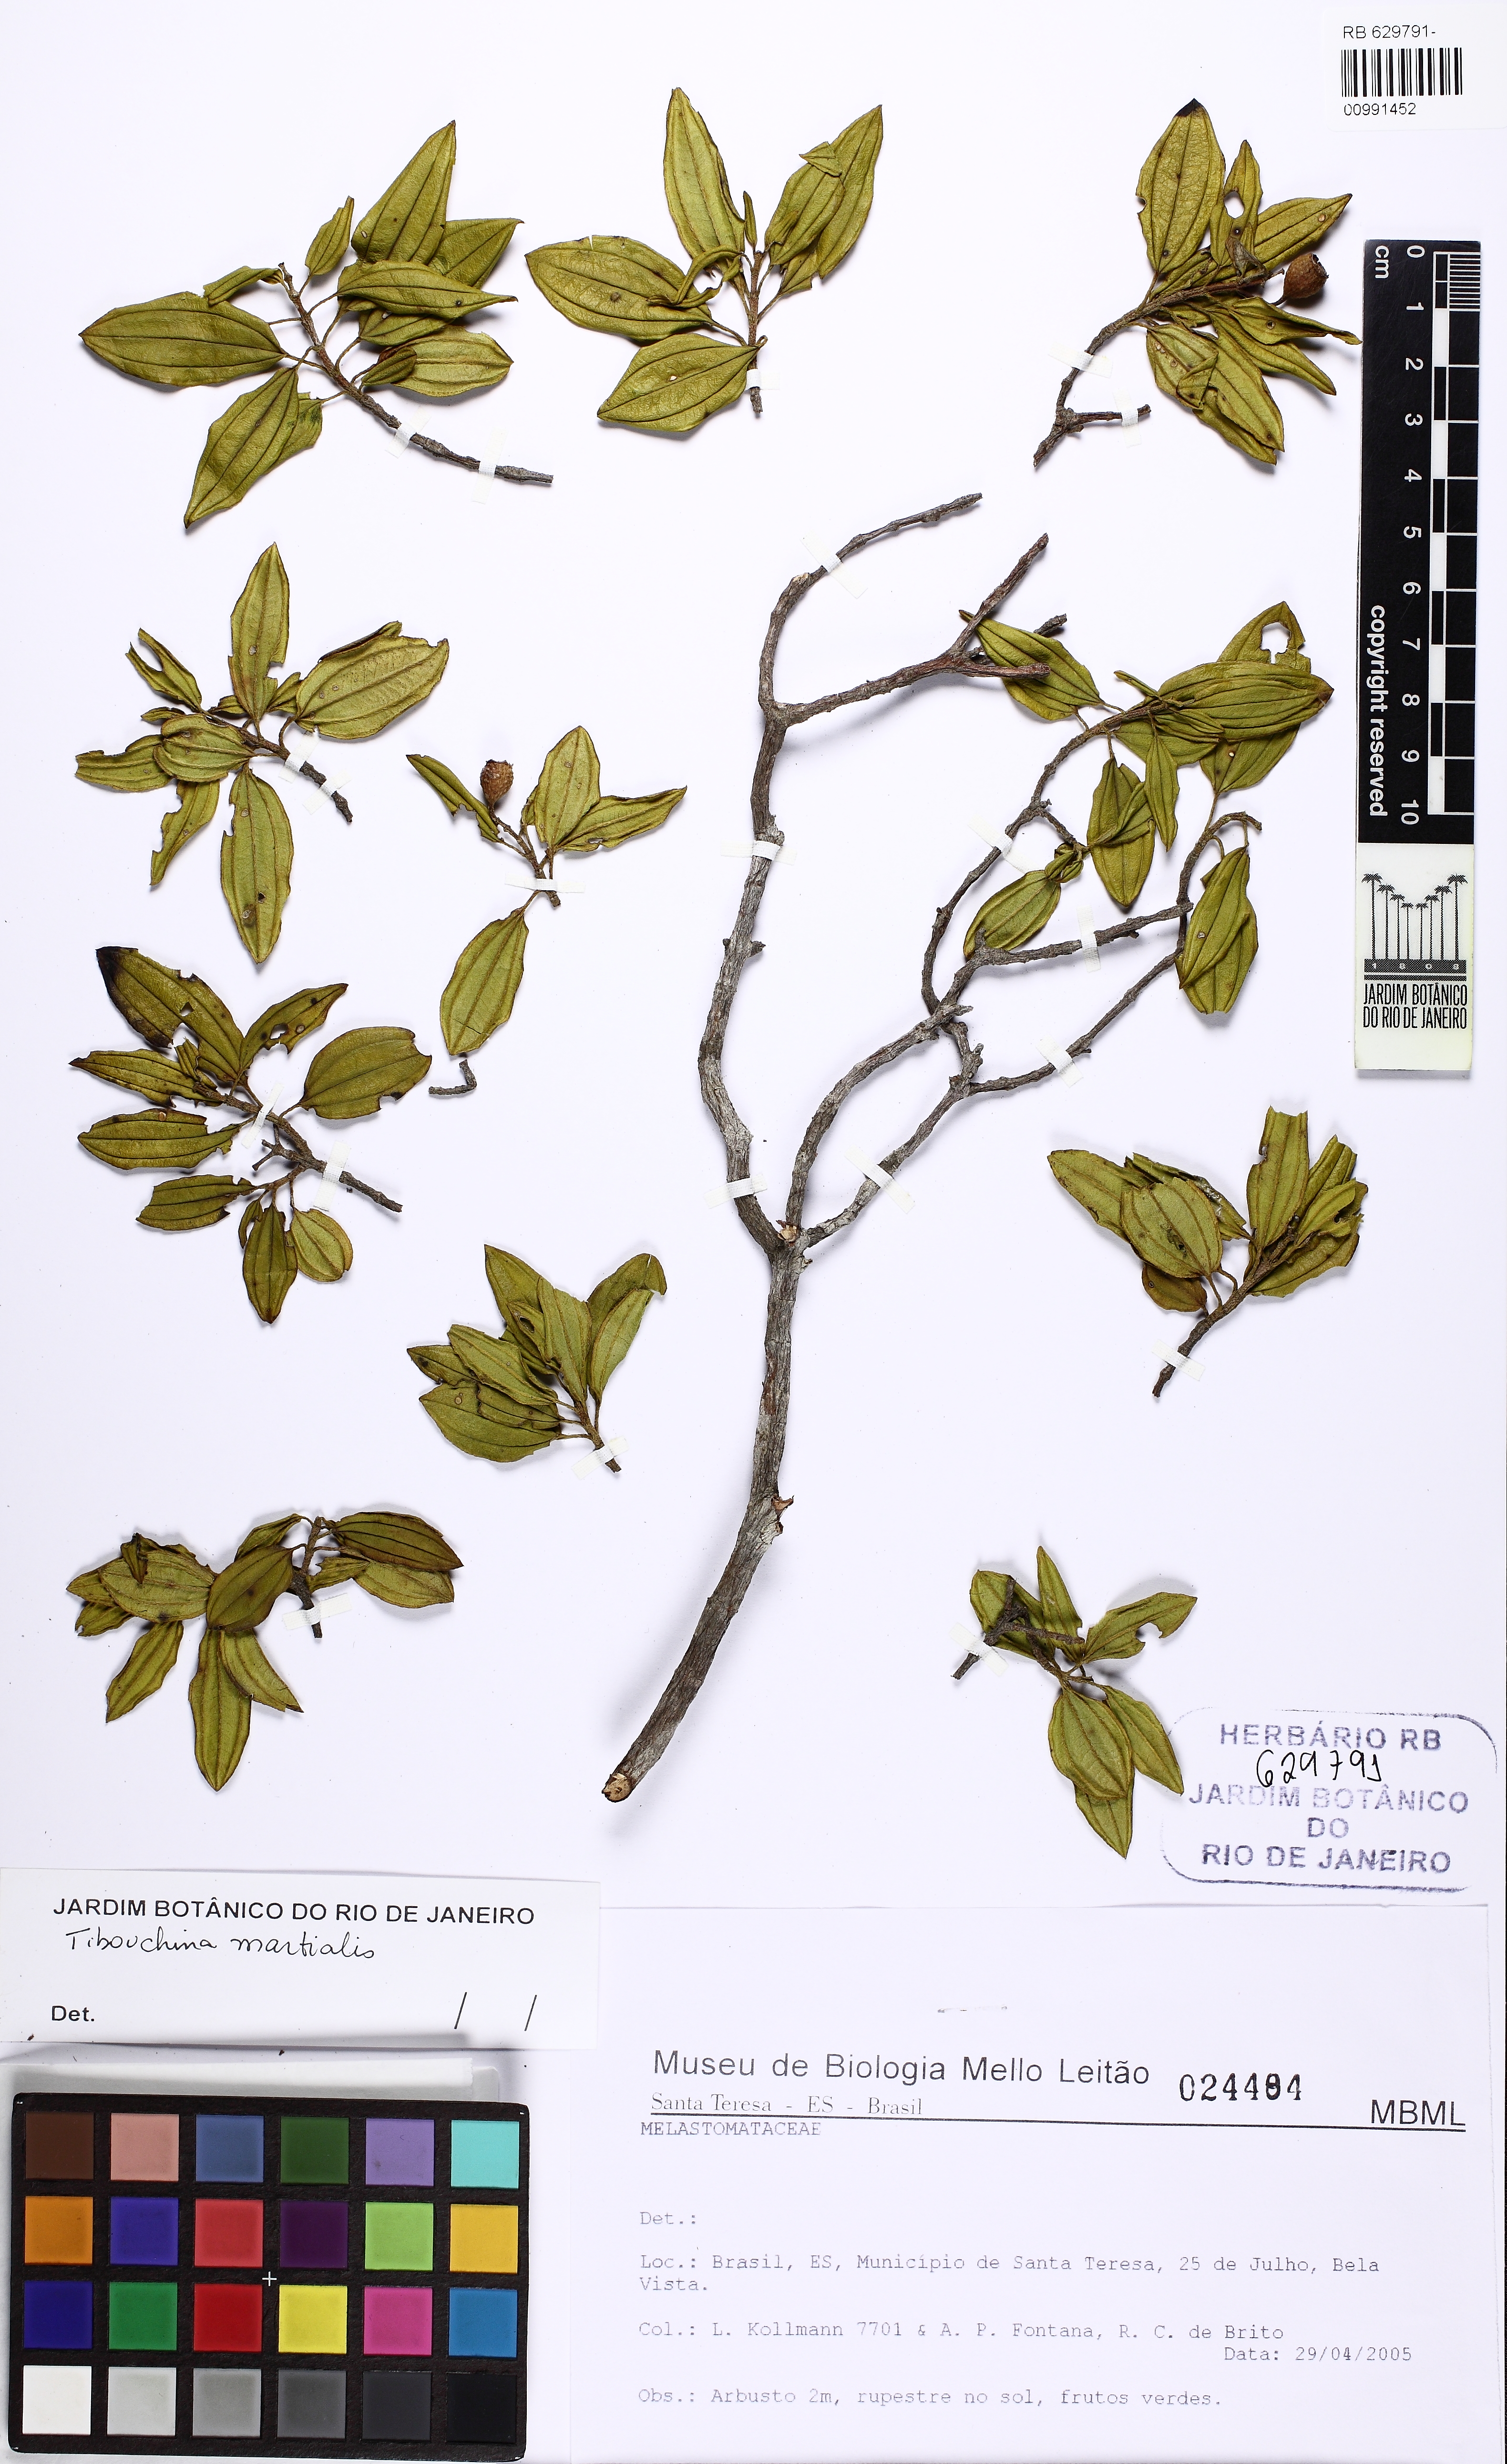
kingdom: Plantae
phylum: Tracheophyta
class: Magnoliopsida
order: Myrtales
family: Melastomataceae
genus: Pleroma
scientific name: Pleroma martiale
